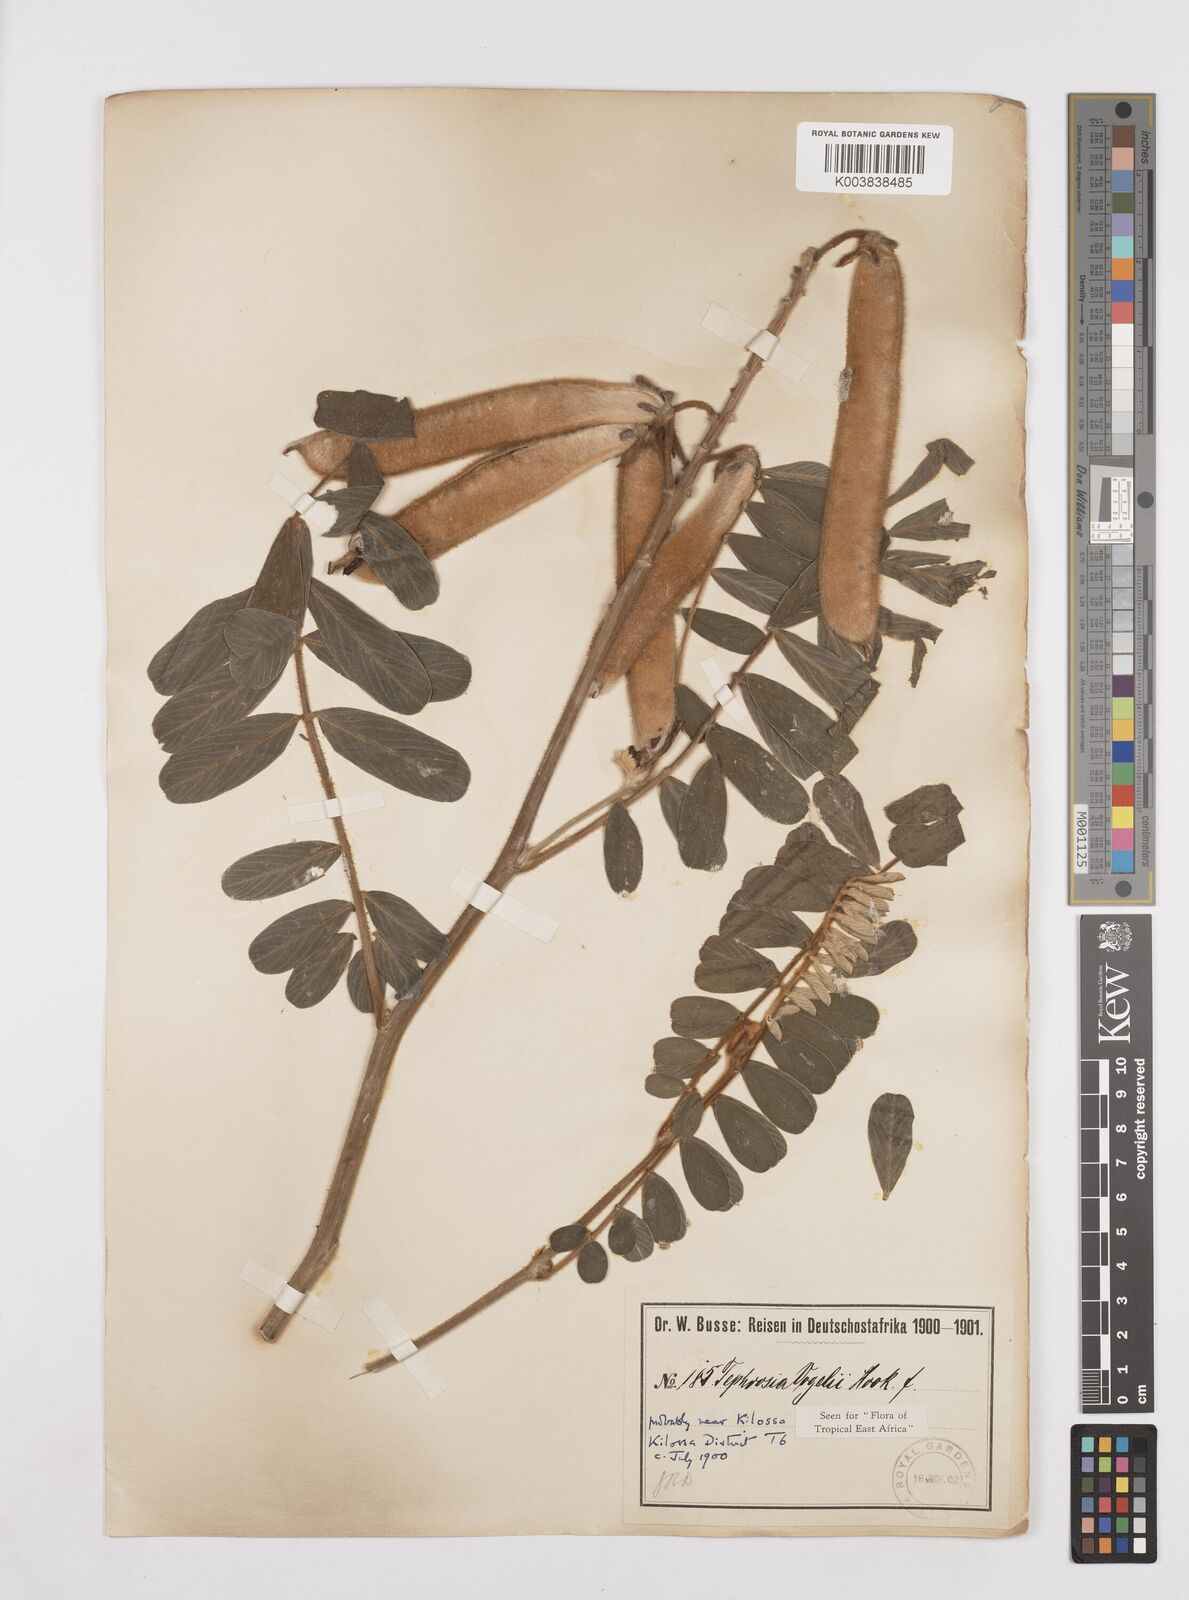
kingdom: Plantae
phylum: Tracheophyta
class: Magnoliopsida
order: Fabales
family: Fabaceae
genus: Tephrosia
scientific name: Tephrosia vogelii
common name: Vogel tephrosia
